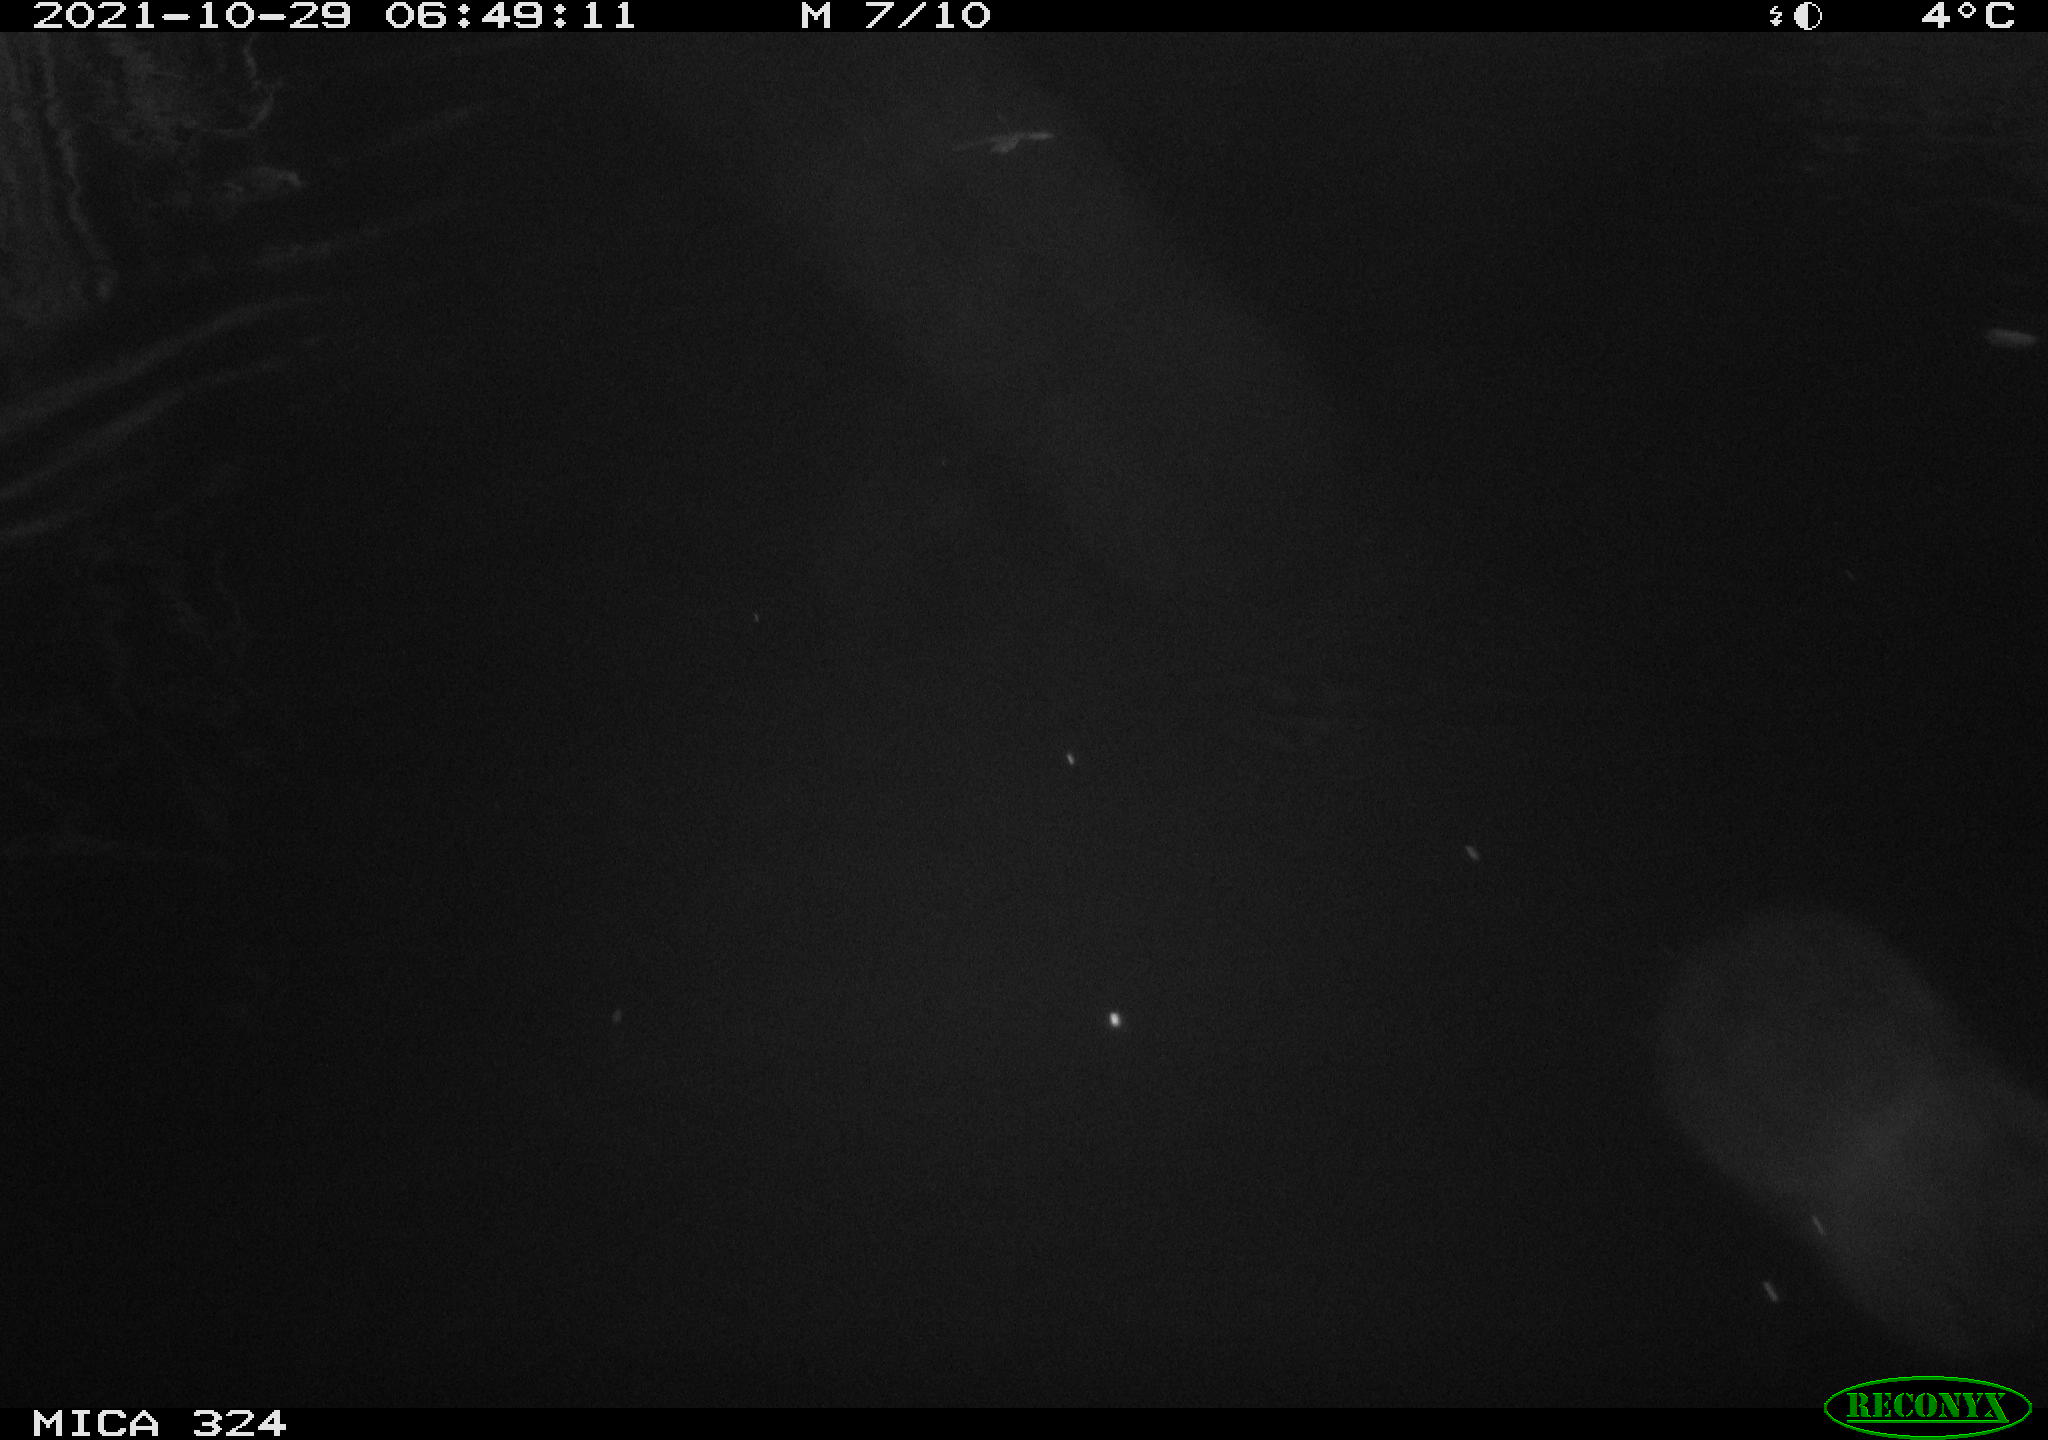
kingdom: Animalia
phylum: Chordata
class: Mammalia
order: Rodentia
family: Myocastoridae
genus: Myocastor
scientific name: Myocastor coypus
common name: Coypu
